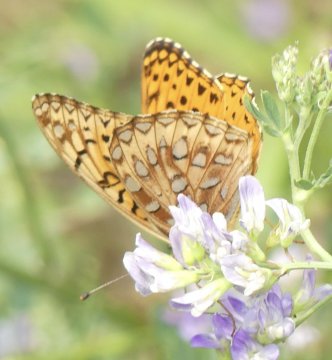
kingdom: Animalia
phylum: Arthropoda
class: Insecta
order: Lepidoptera
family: Nymphalidae
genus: Speyeria
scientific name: Speyeria atlantis
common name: Northwestern Fritillary
